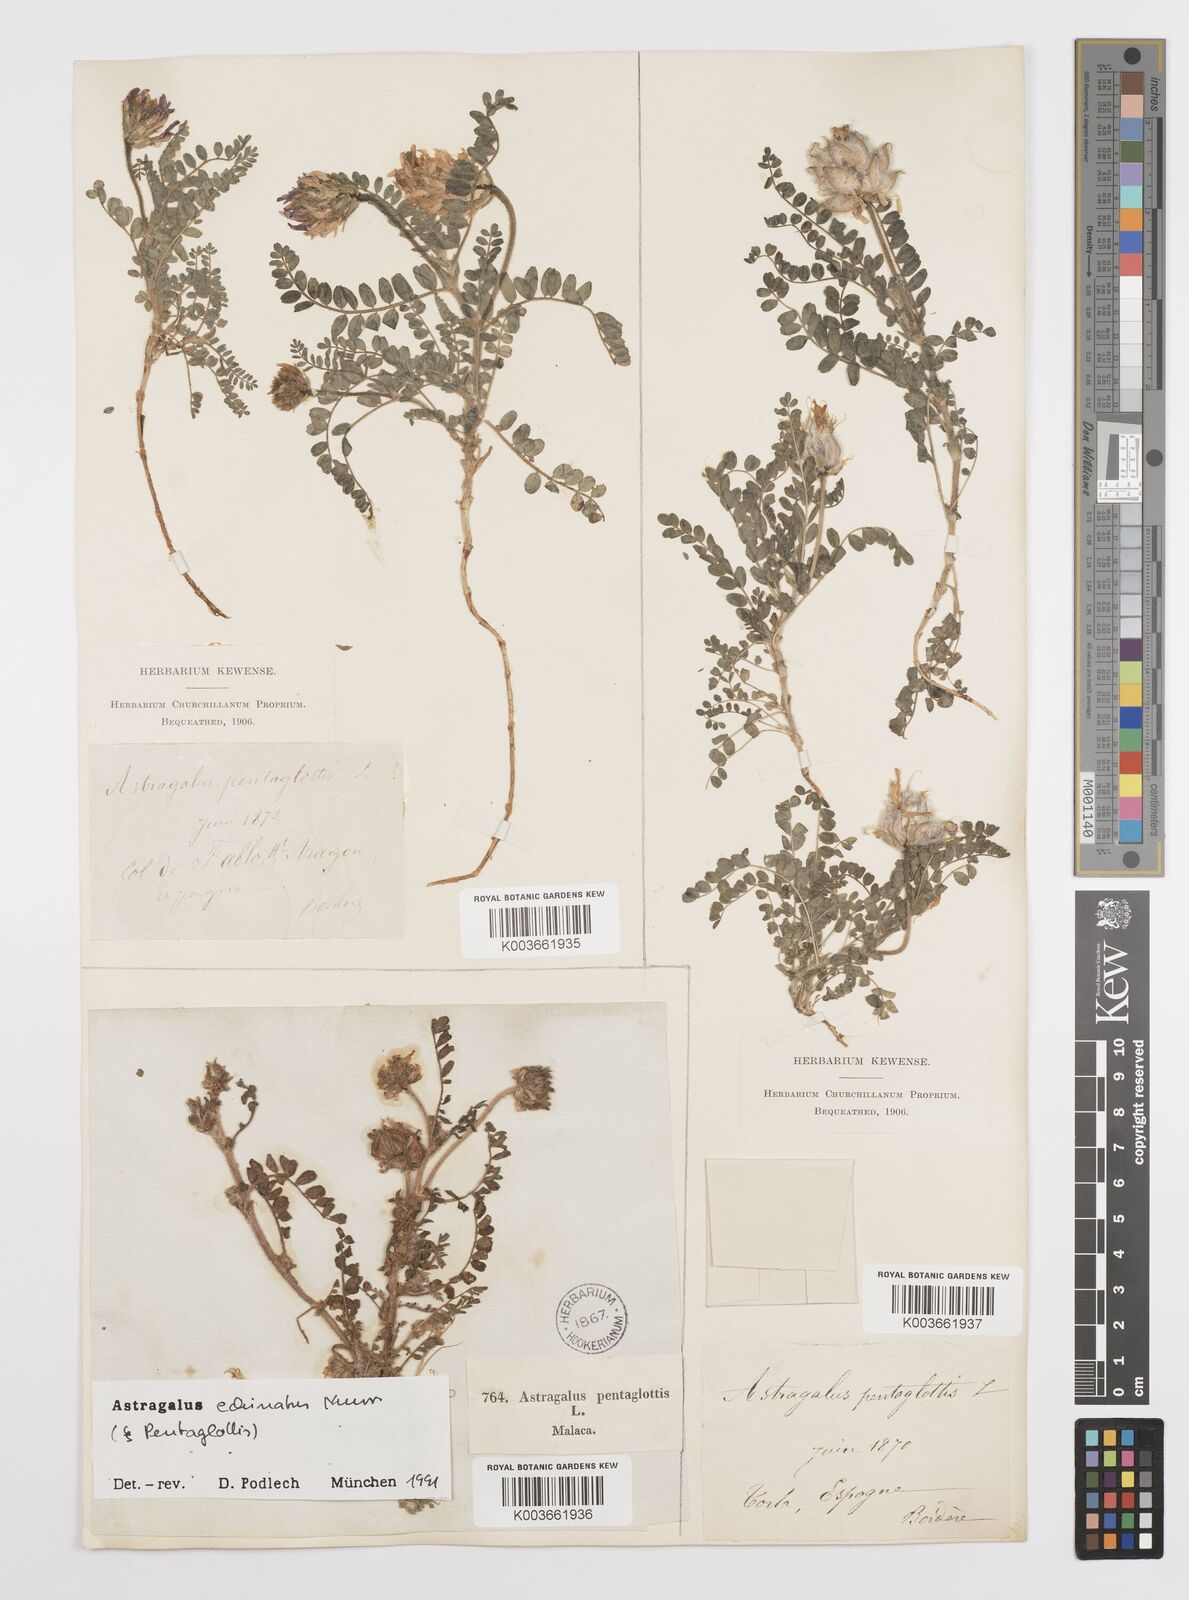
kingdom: Plantae
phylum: Tracheophyta
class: Magnoliopsida
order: Fabales
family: Fabaceae
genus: Astragalus
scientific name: Astragalus echinatus
